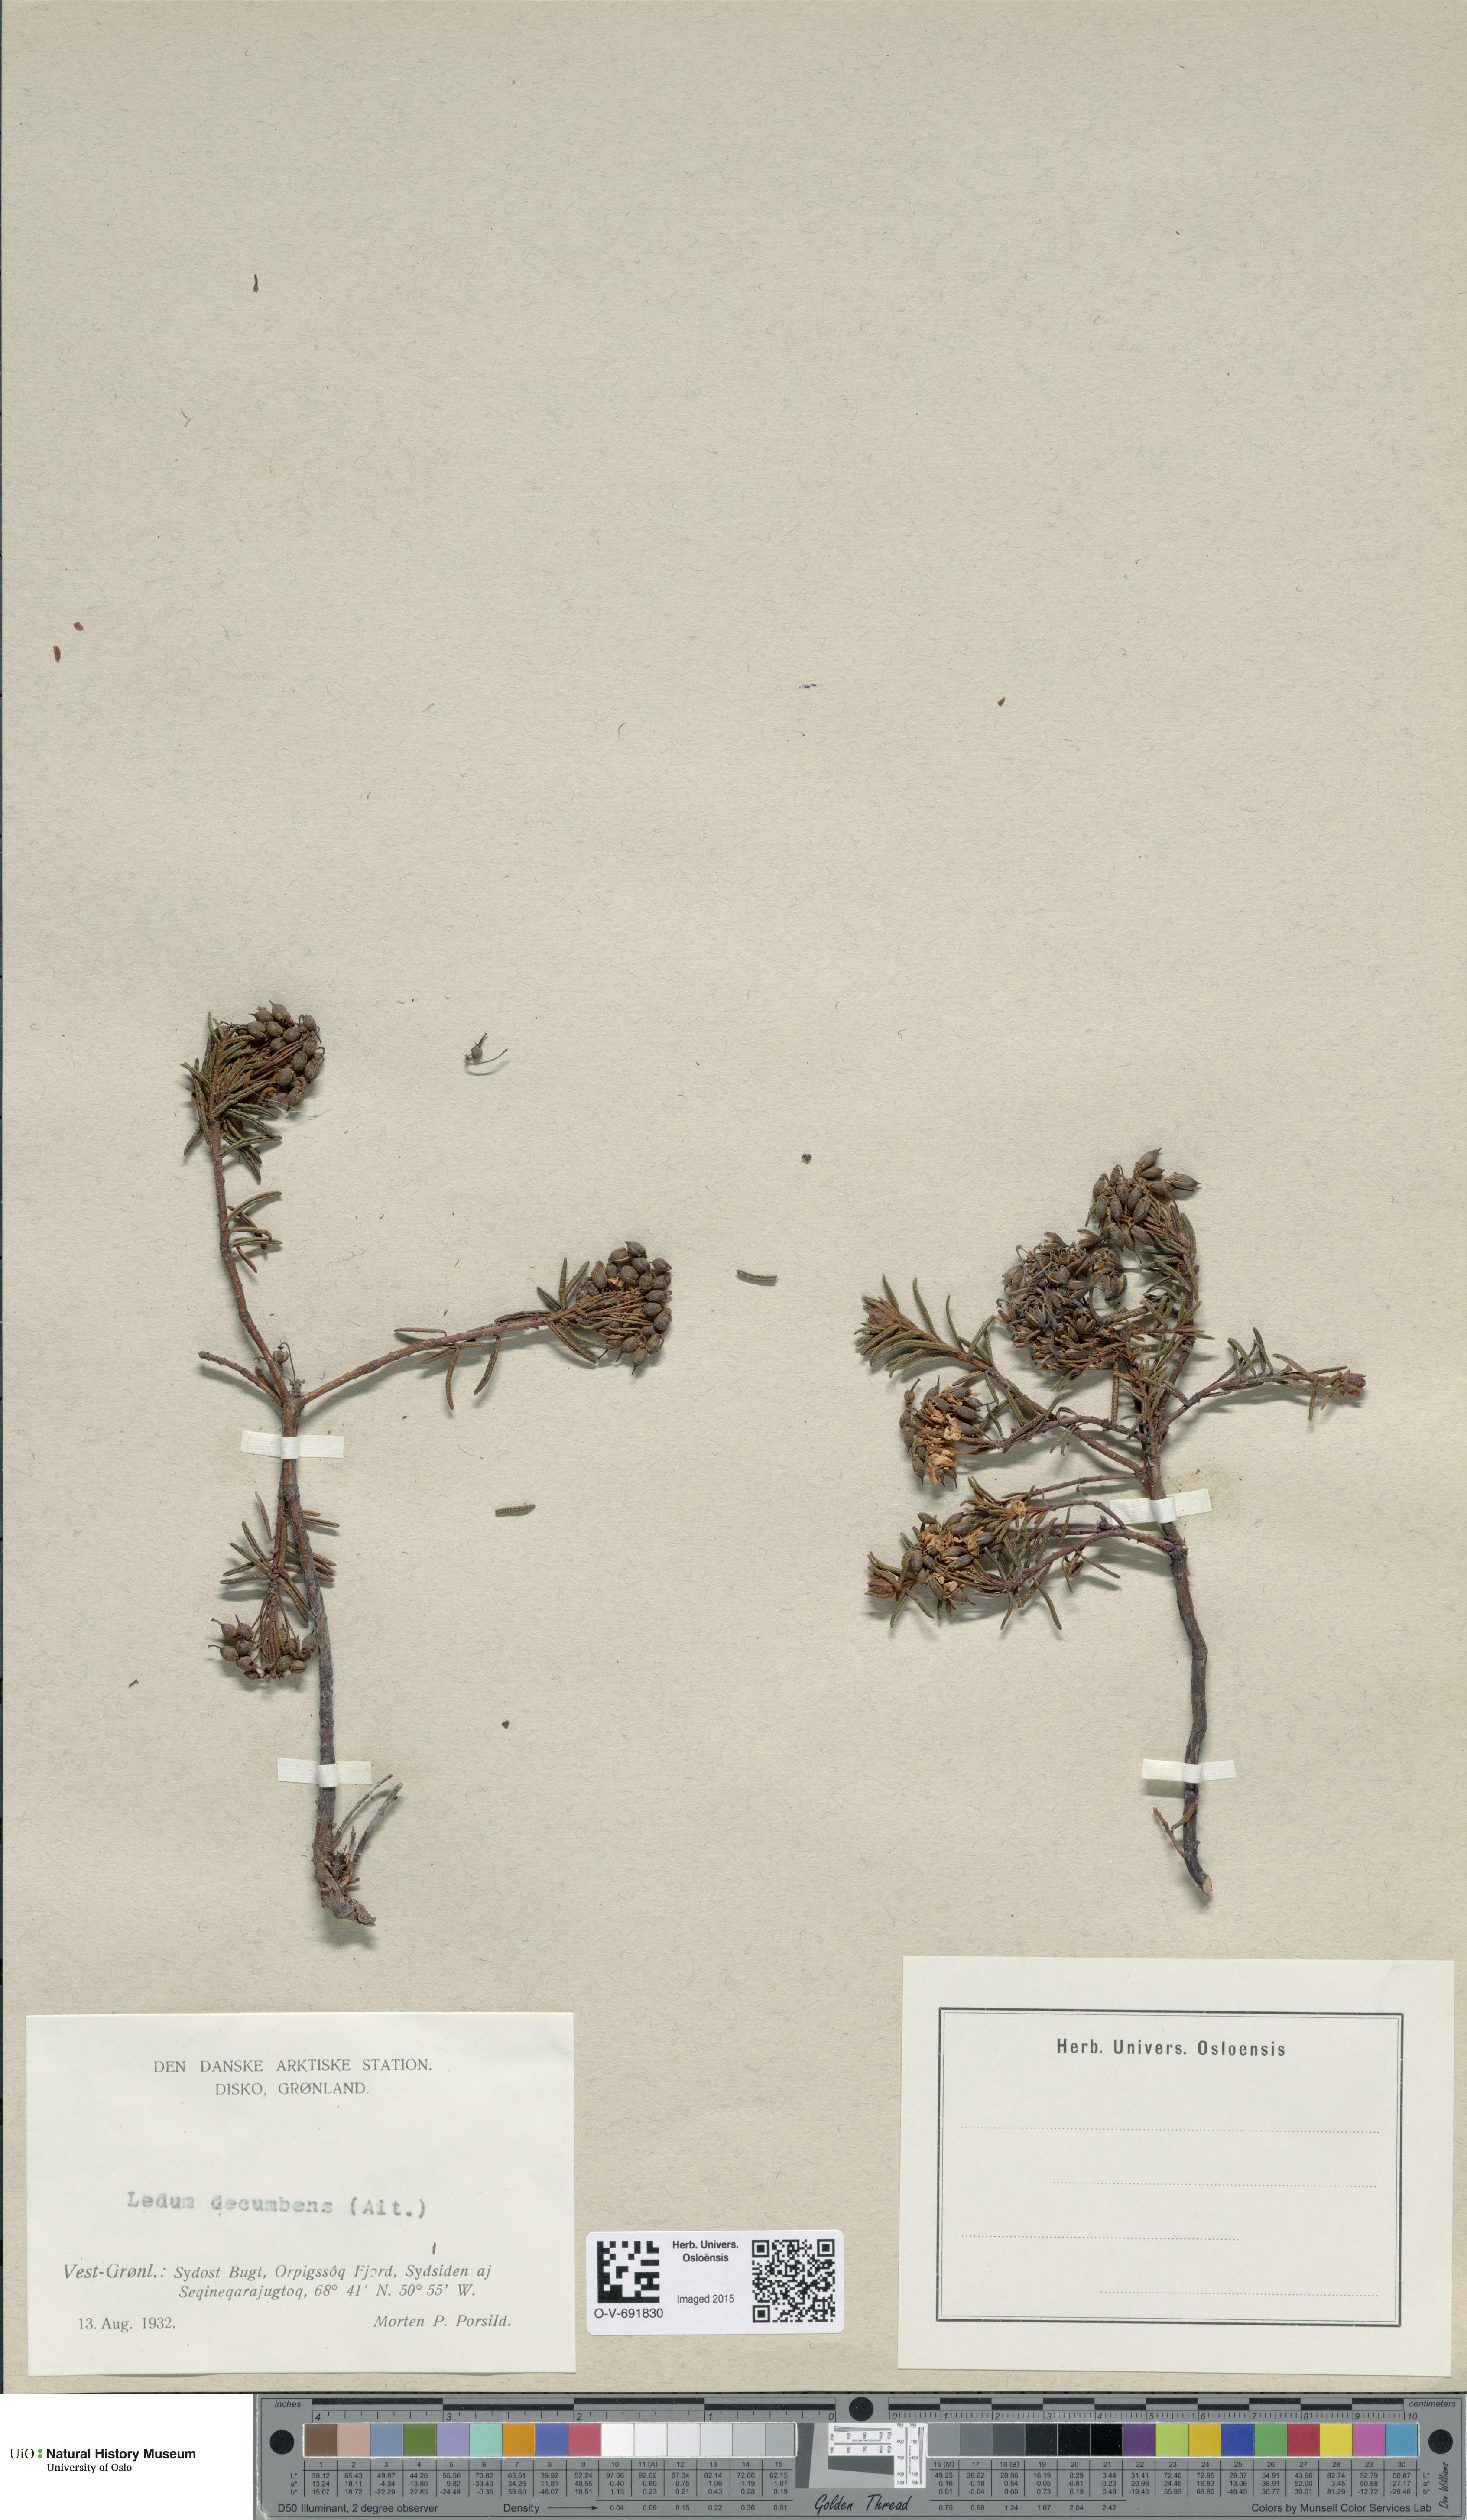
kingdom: Plantae
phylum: Tracheophyta
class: Magnoliopsida
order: Ericales
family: Ericaceae
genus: Rhododendron
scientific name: Rhododendron tomentosum
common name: Marsh labrador tea
